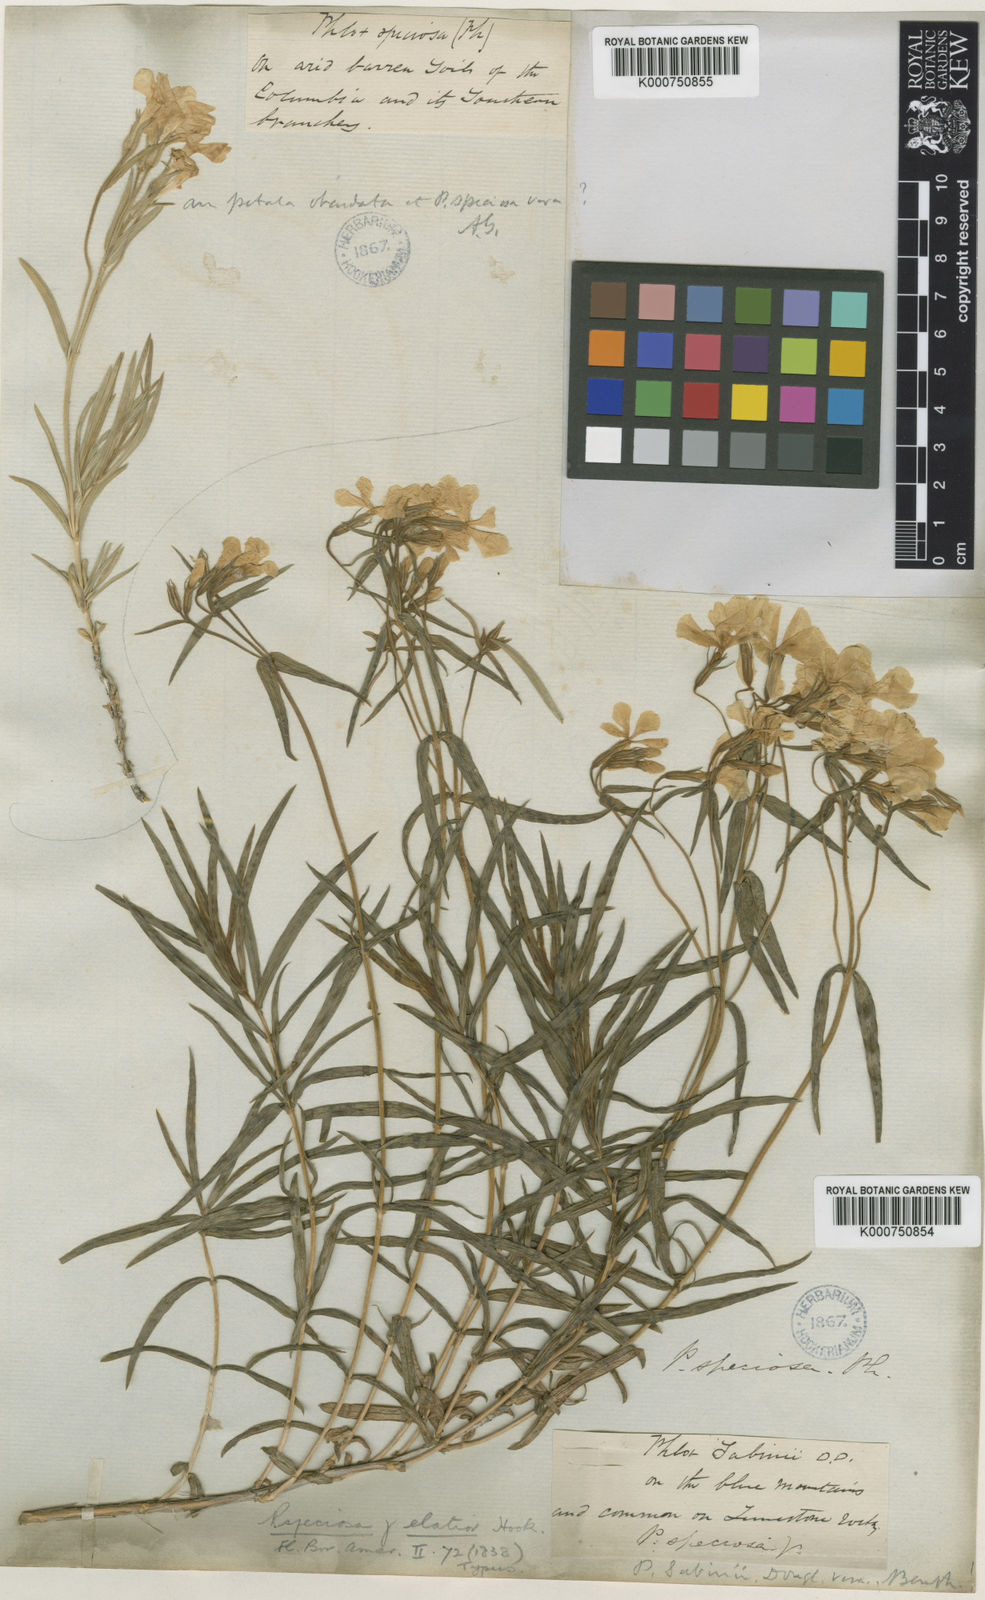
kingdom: Plantae
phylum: Tracheophyta
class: Magnoliopsida
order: Ericales
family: Polemoniaceae
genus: Phlox
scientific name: Phlox speciosa
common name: Bush phlox
